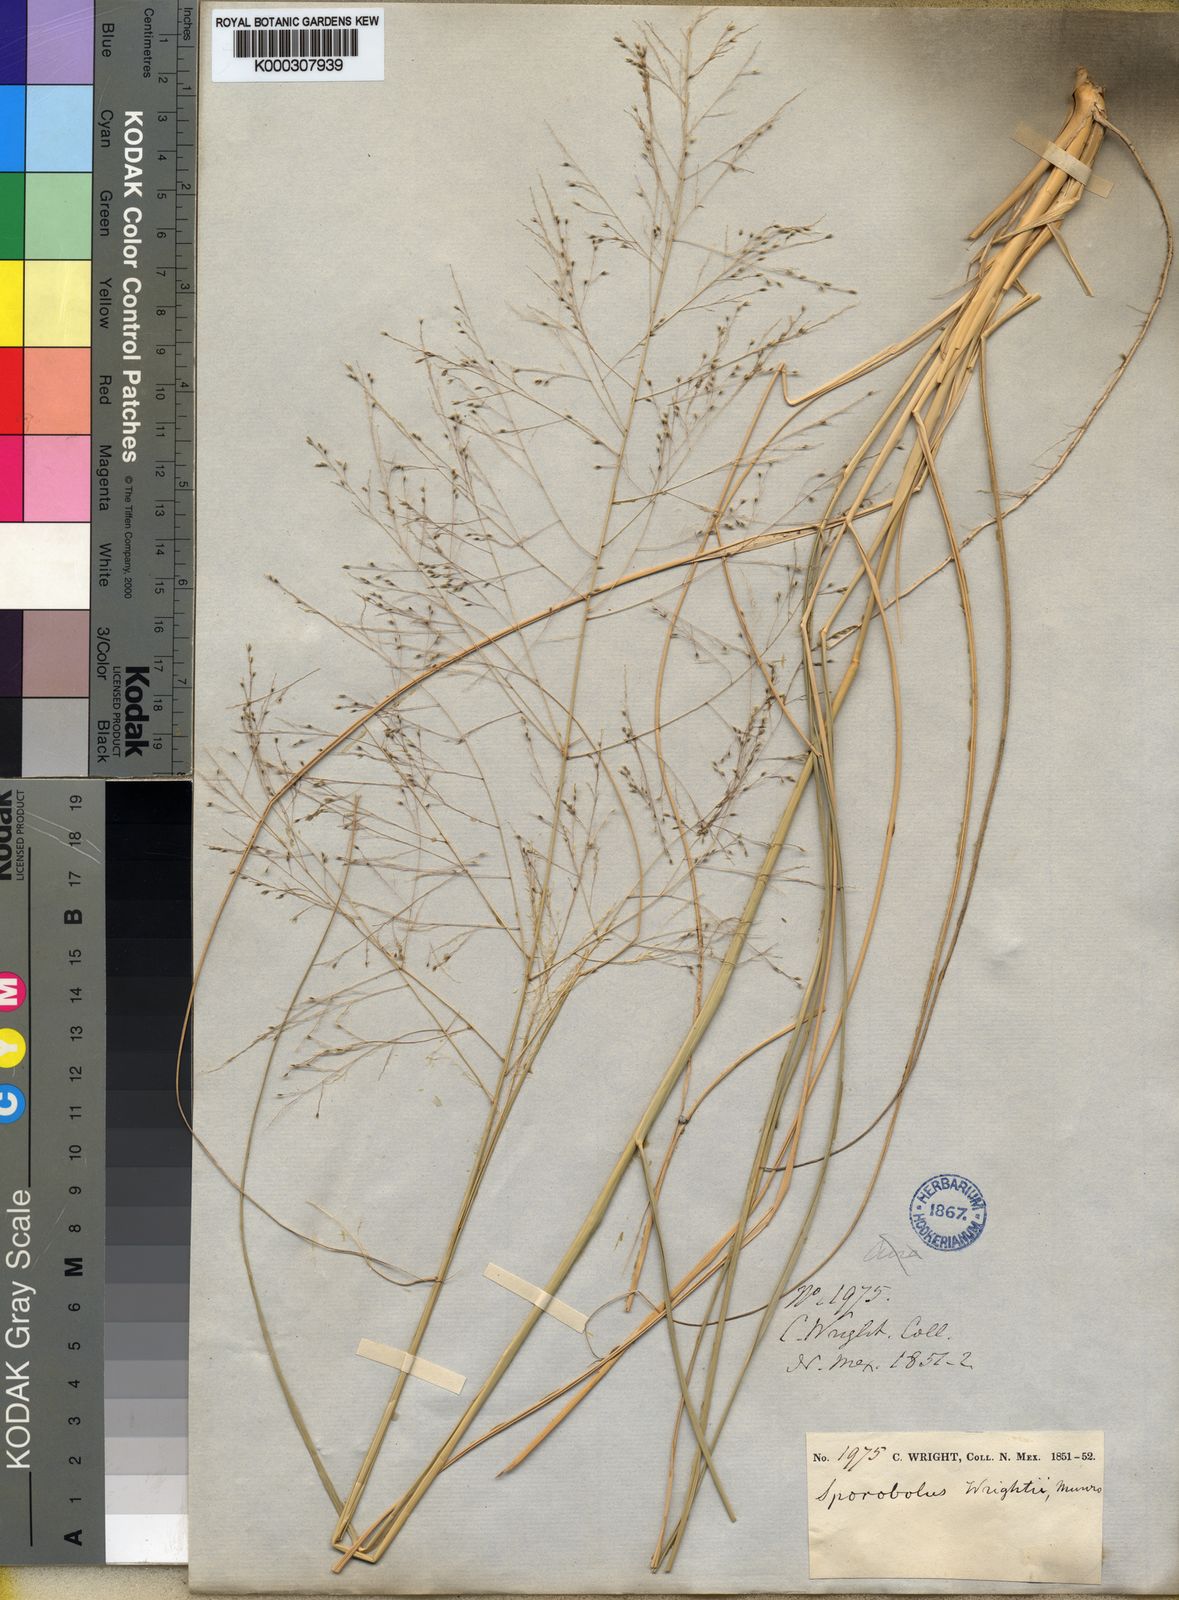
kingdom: Plantae
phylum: Tracheophyta
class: Liliopsida
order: Poales
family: Poaceae
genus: Sporobolus
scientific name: Sporobolus
